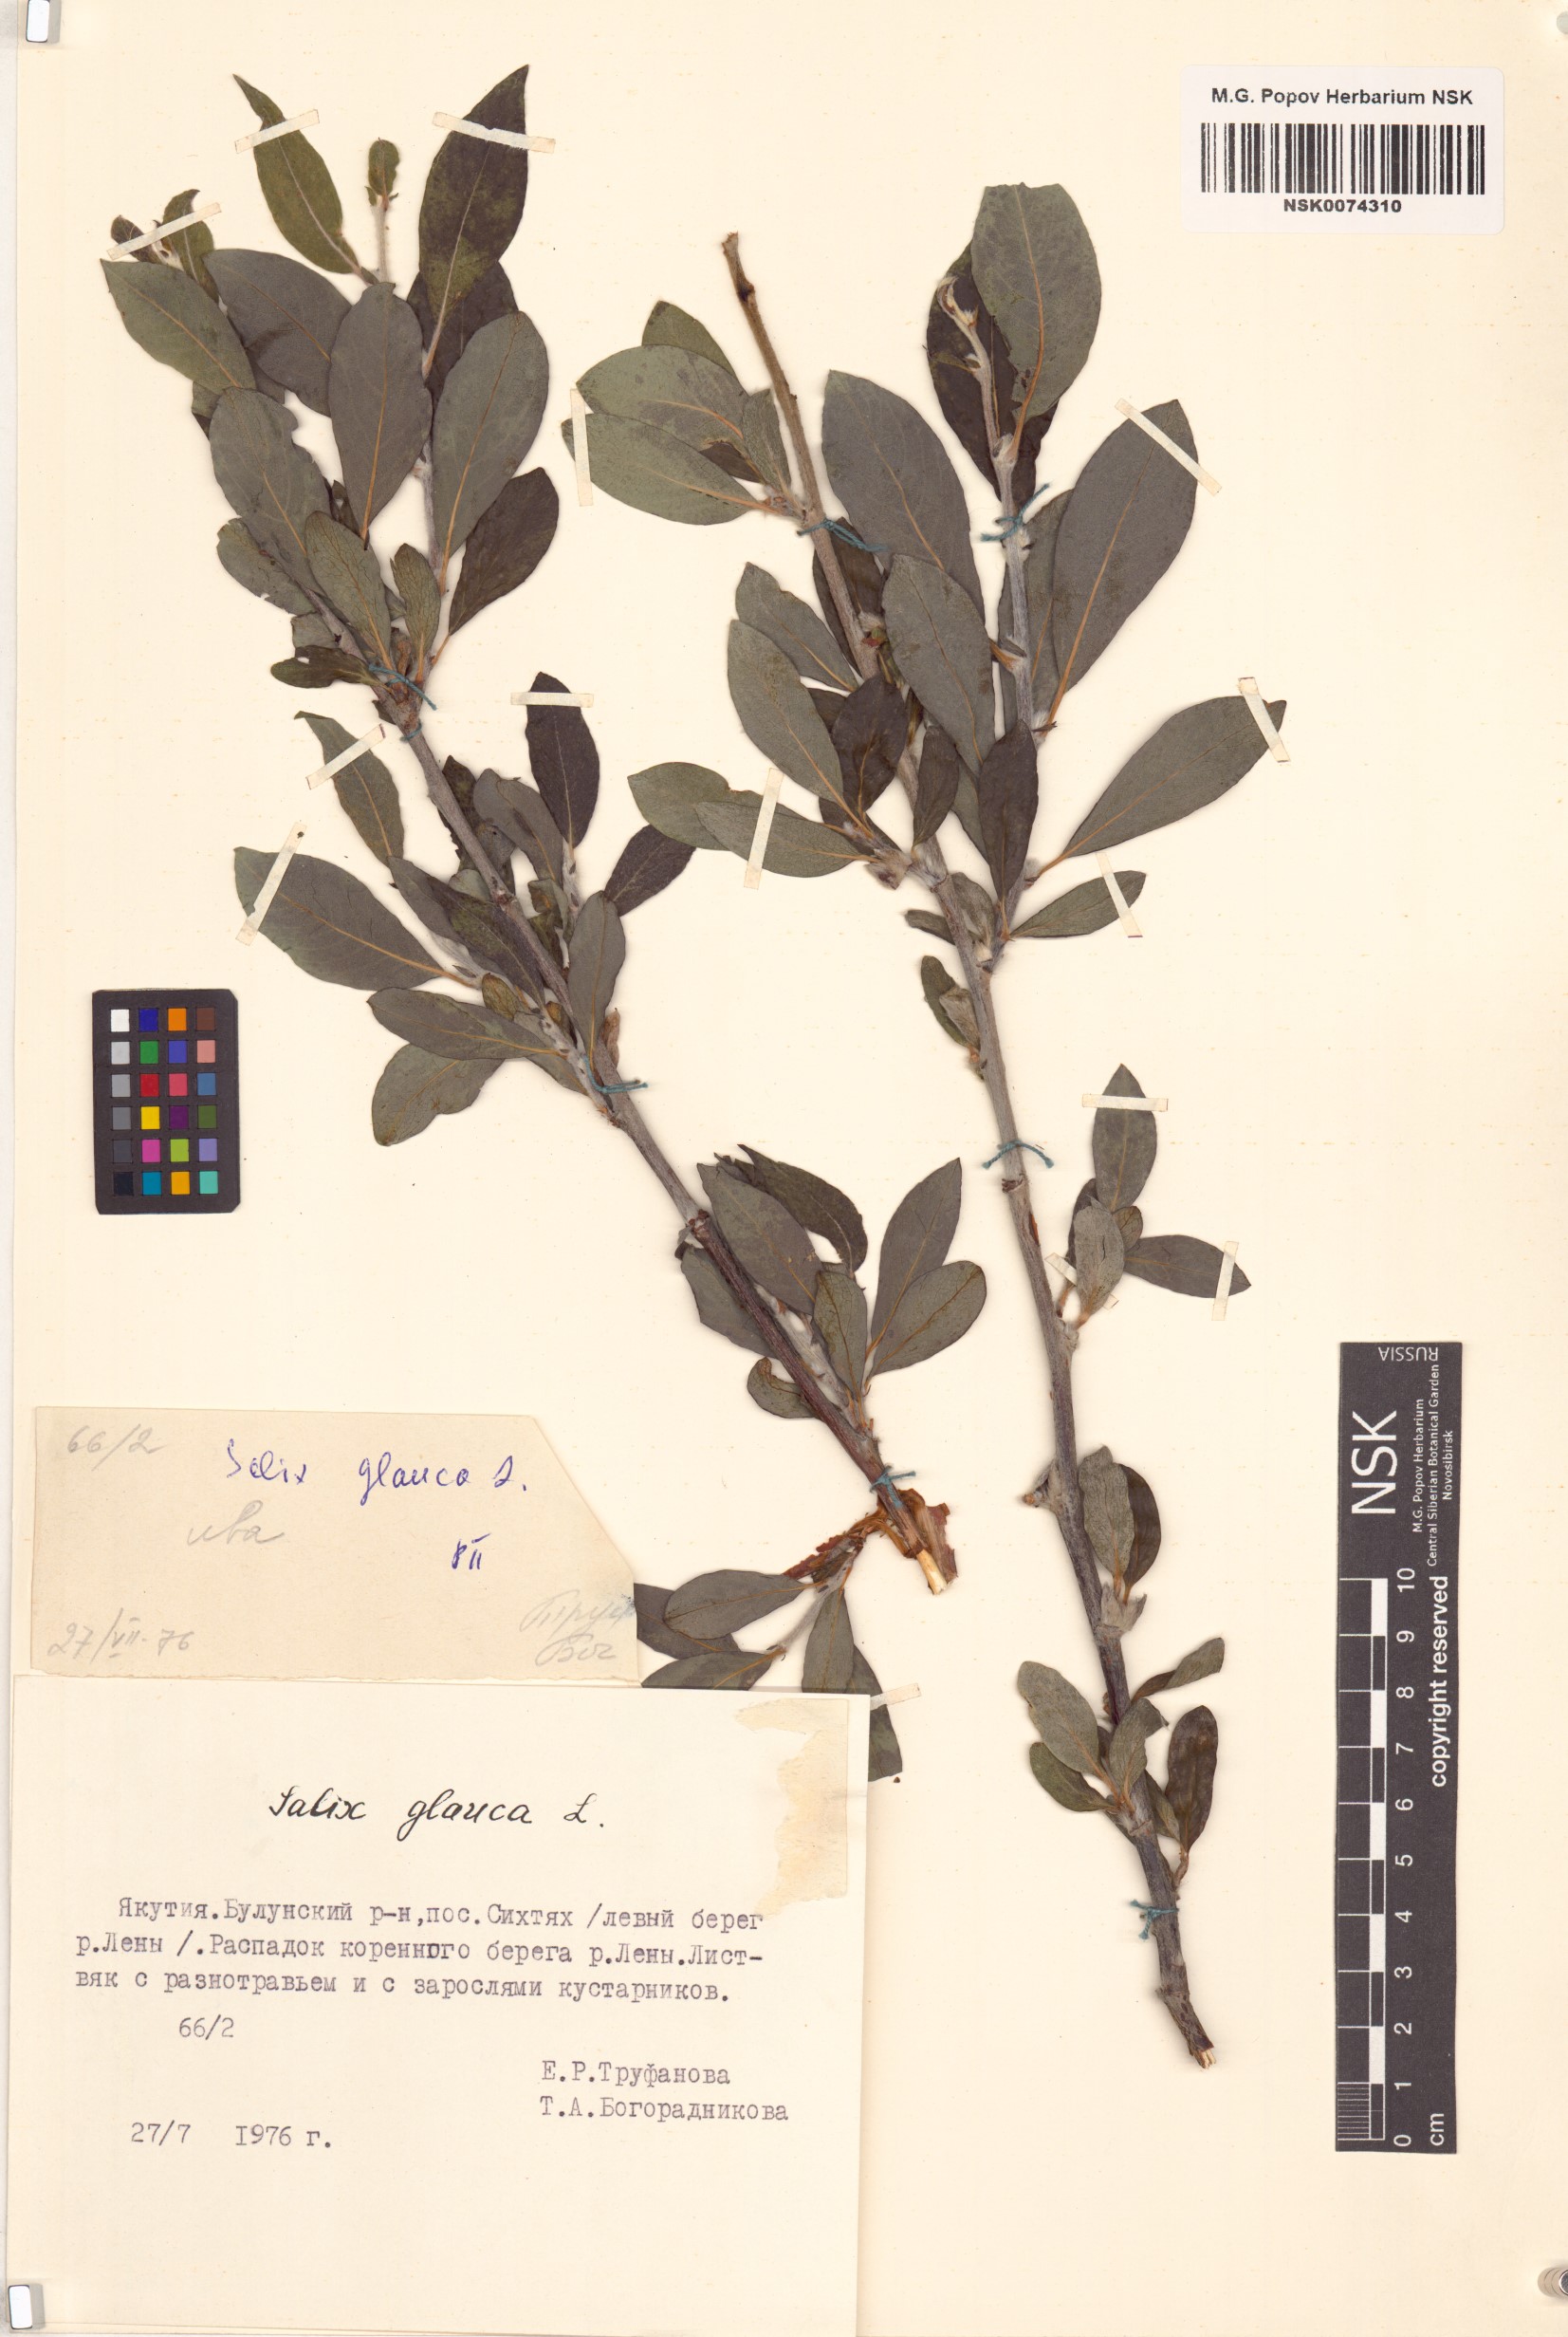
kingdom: Plantae
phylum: Tracheophyta
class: Magnoliopsida
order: Malpighiales
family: Salicaceae
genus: Salix
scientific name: Salix glauca
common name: Glaucous willow
